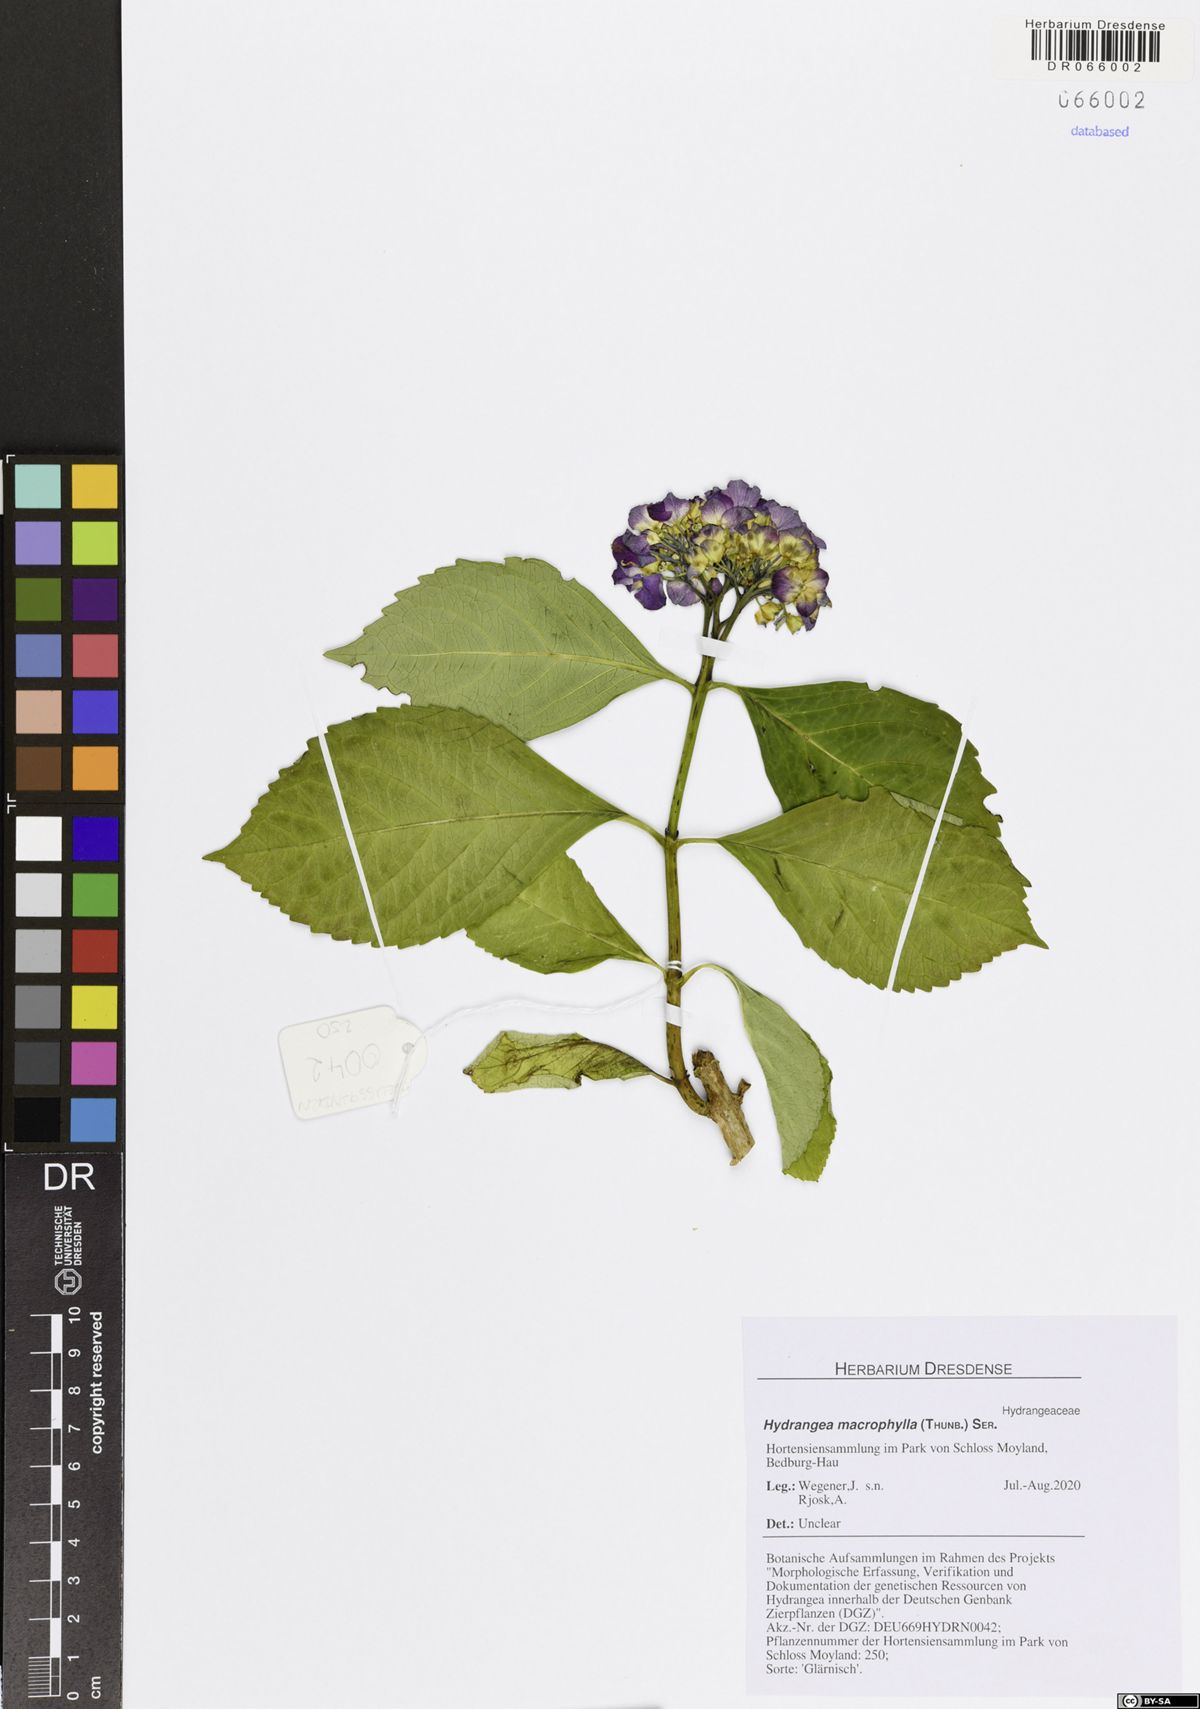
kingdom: Plantae
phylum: Tracheophyta
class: Magnoliopsida
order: Cornales
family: Hydrangeaceae
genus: Hydrangea
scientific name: Hydrangea macrophylla
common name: Hydrangea
